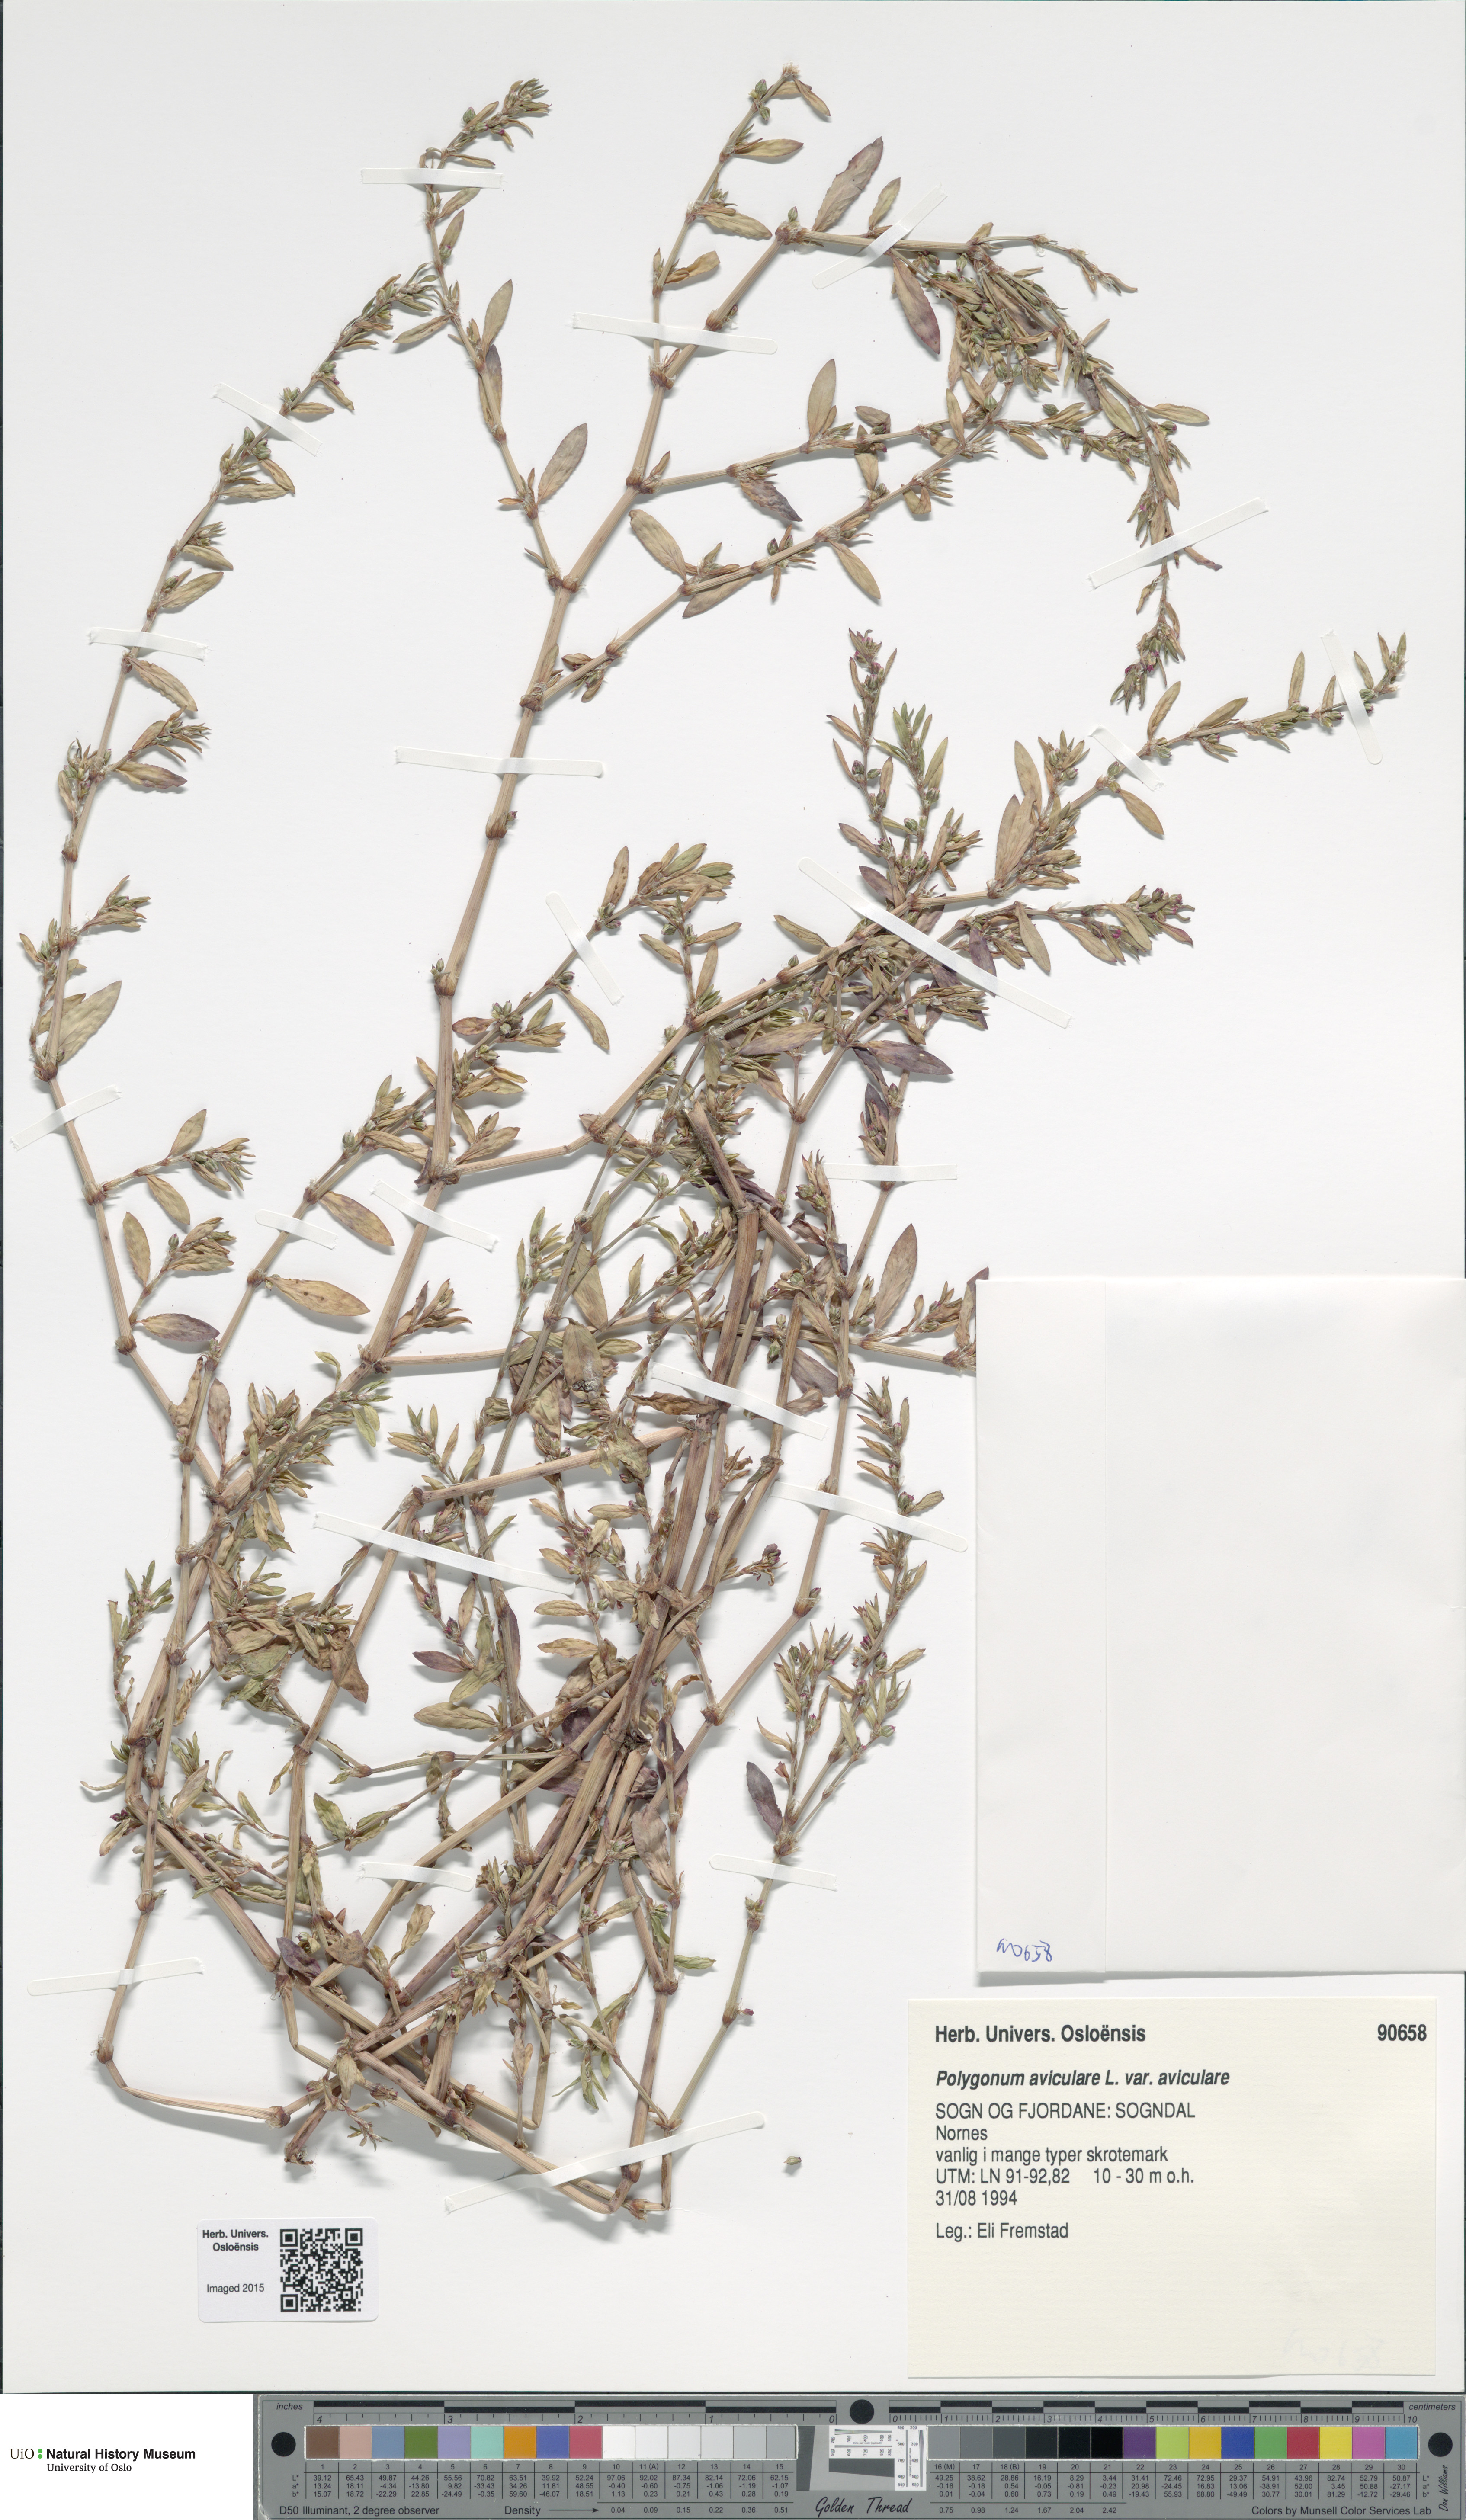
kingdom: Plantae
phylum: Tracheophyta
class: Magnoliopsida
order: Caryophyllales
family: Polygonaceae
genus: Polygonum
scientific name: Polygonum aviculare
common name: Prostrate knotweed
